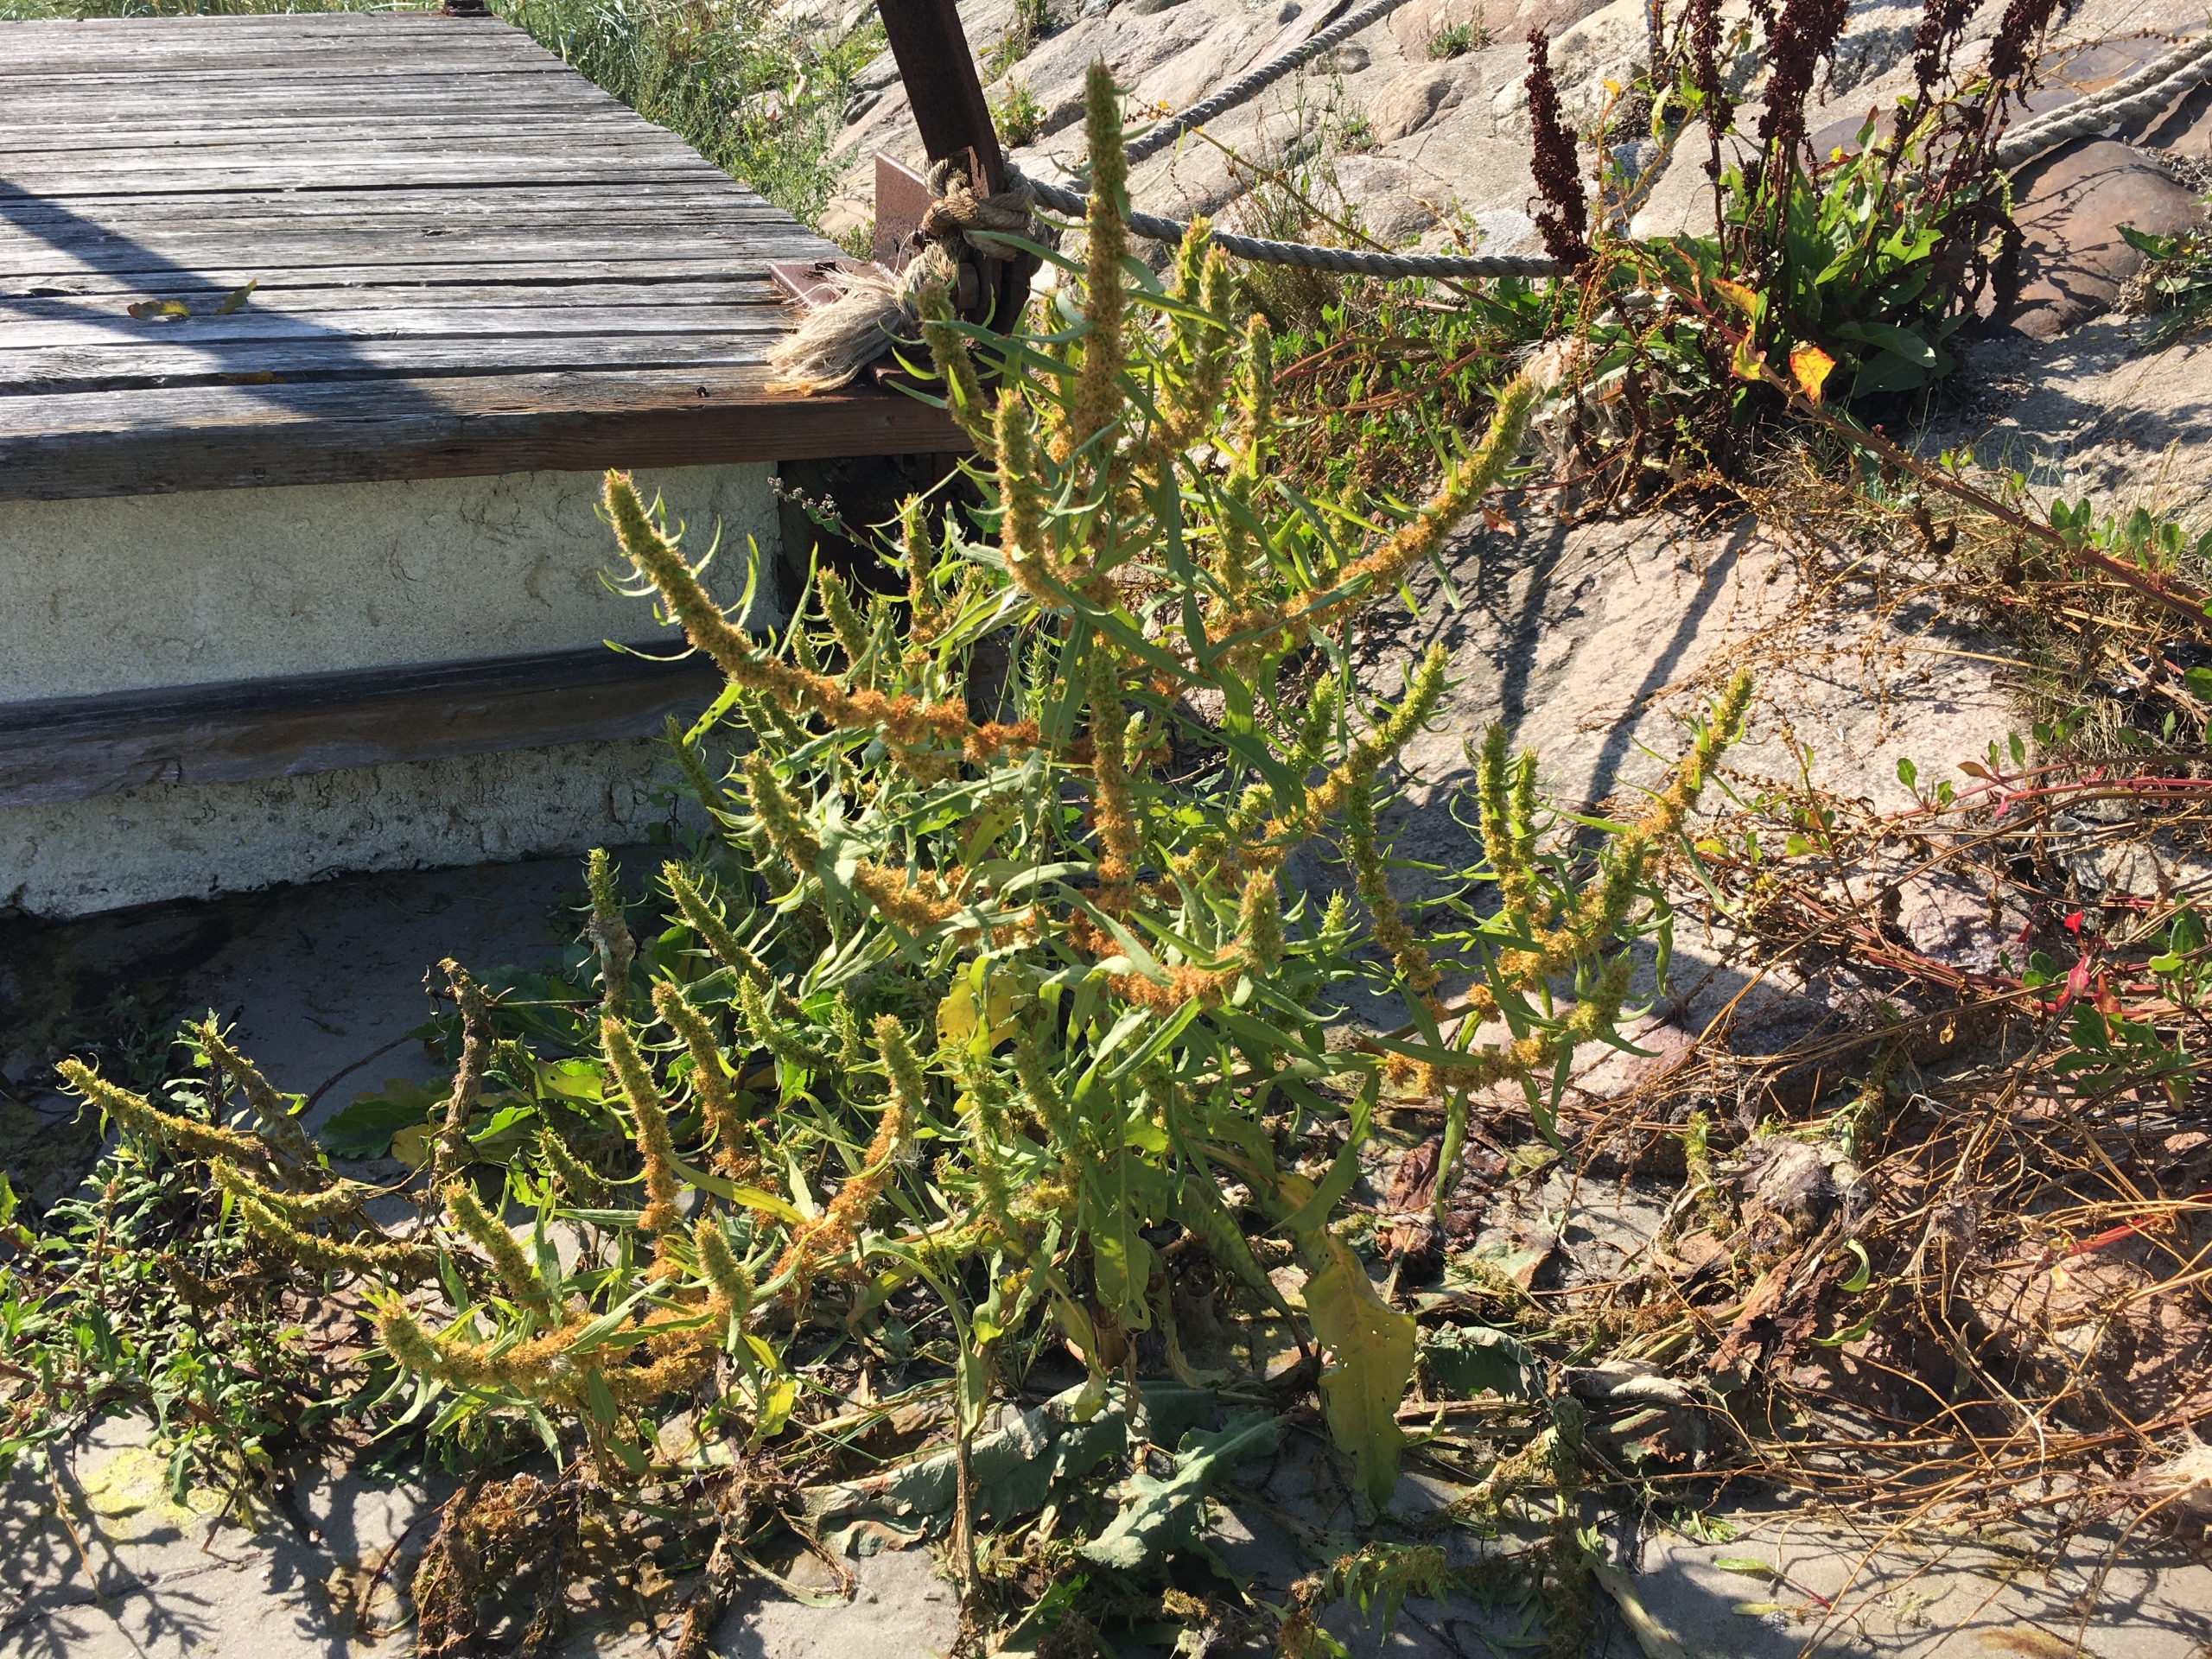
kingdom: Plantae
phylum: Tracheophyta
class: Magnoliopsida
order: Caryophyllales
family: Polygonaceae
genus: Rumex
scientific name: Rumex maritimus
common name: Strand-skræppe
